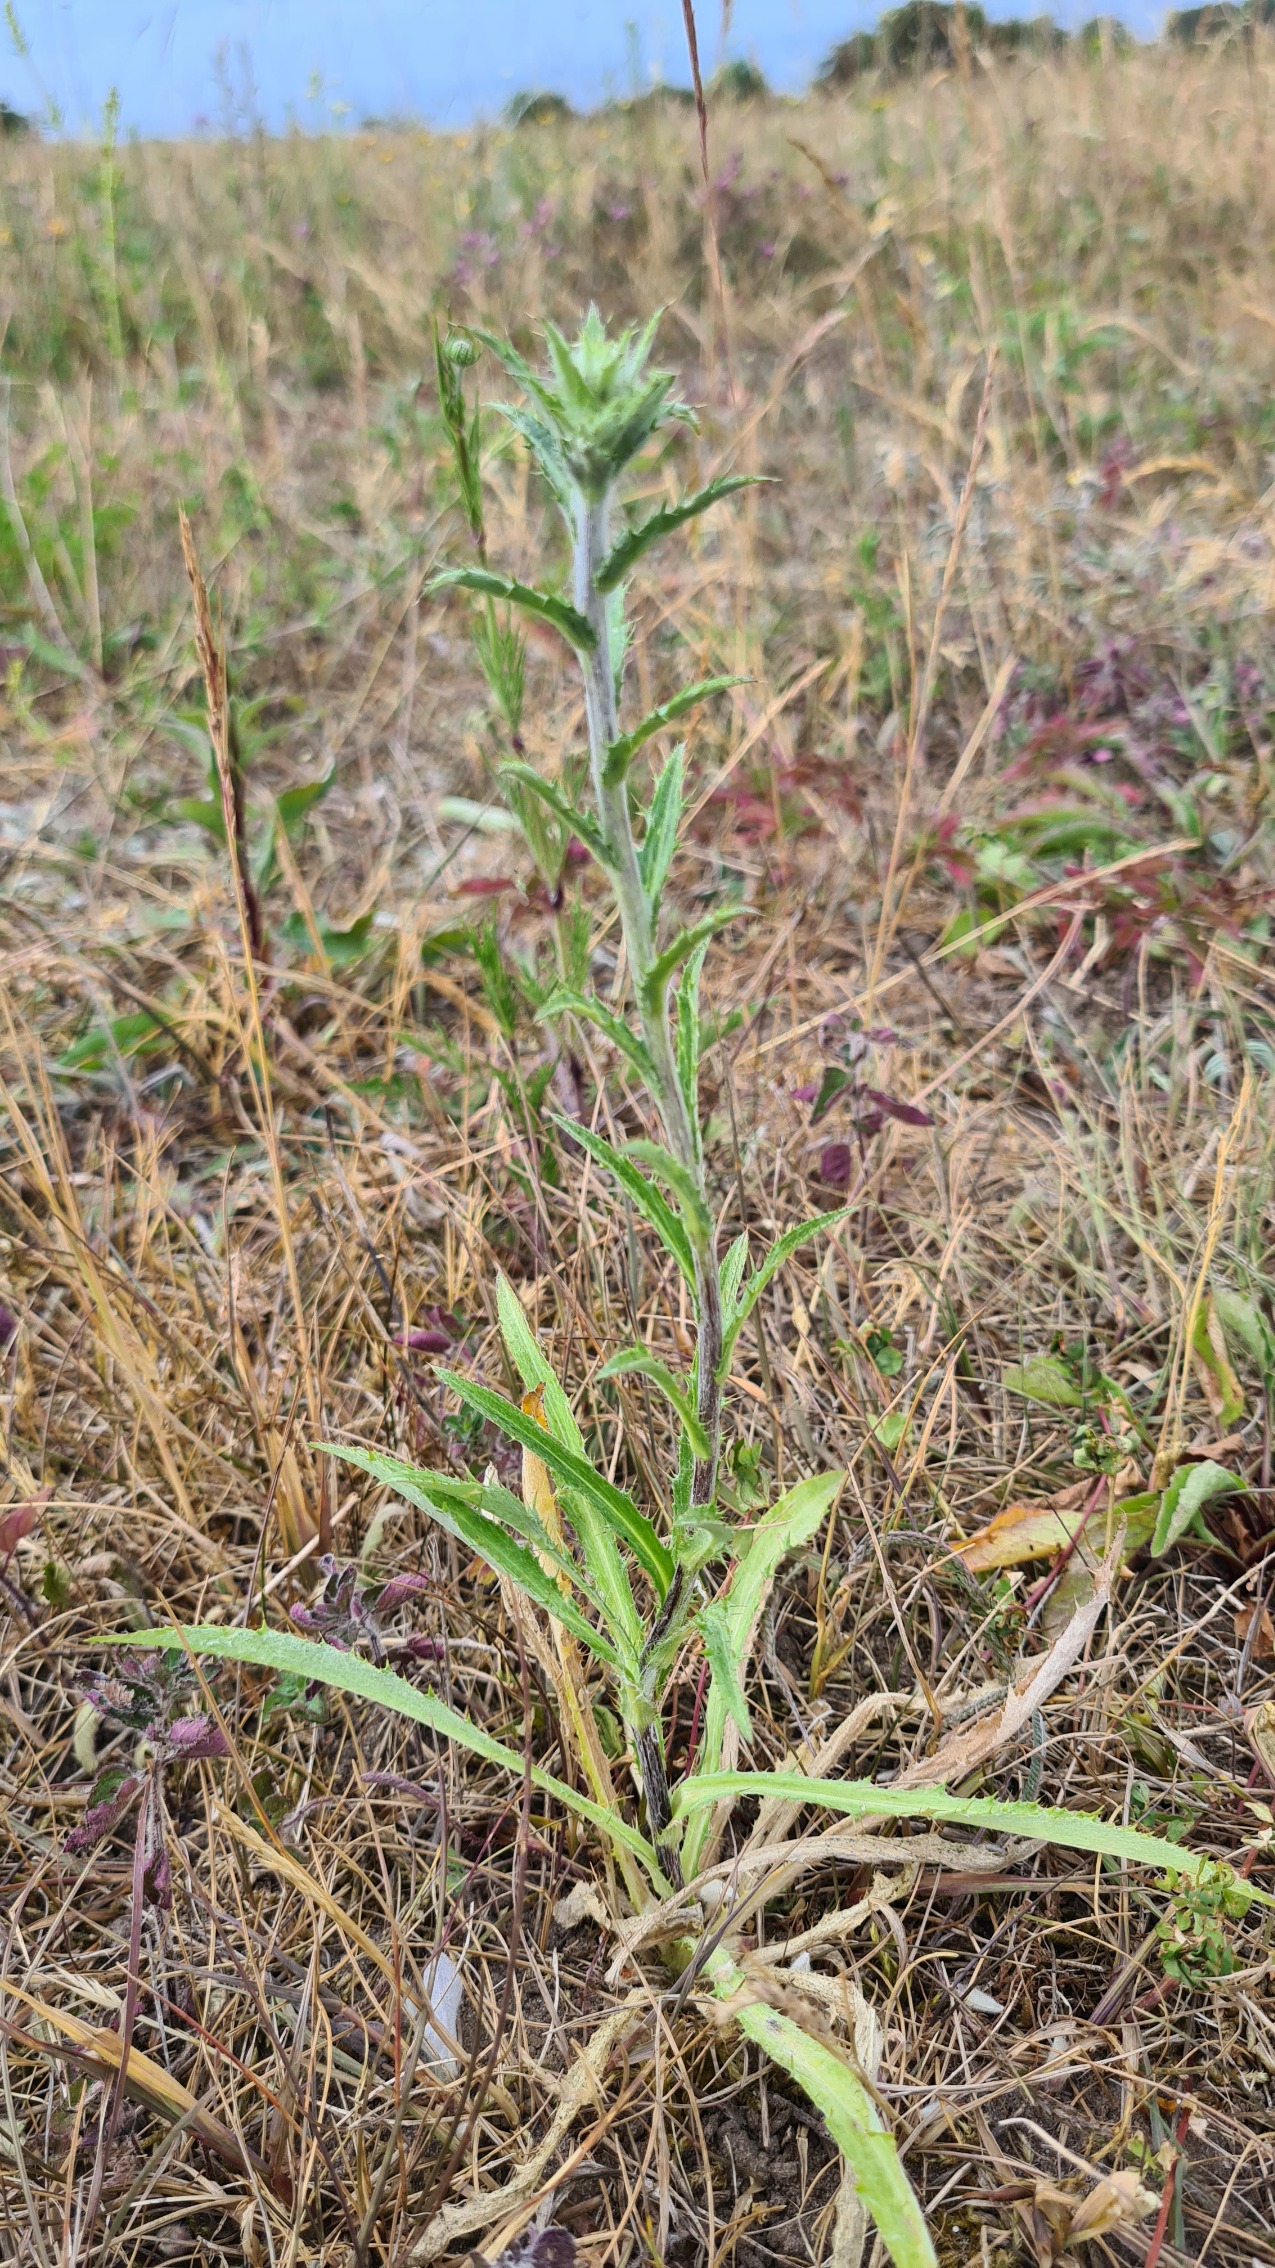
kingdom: Plantae
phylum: Tracheophyta
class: Magnoliopsida
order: Asterales
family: Asteraceae
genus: Carlina
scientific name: Carlina biebersteinii
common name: Langbladet bakketidsel
